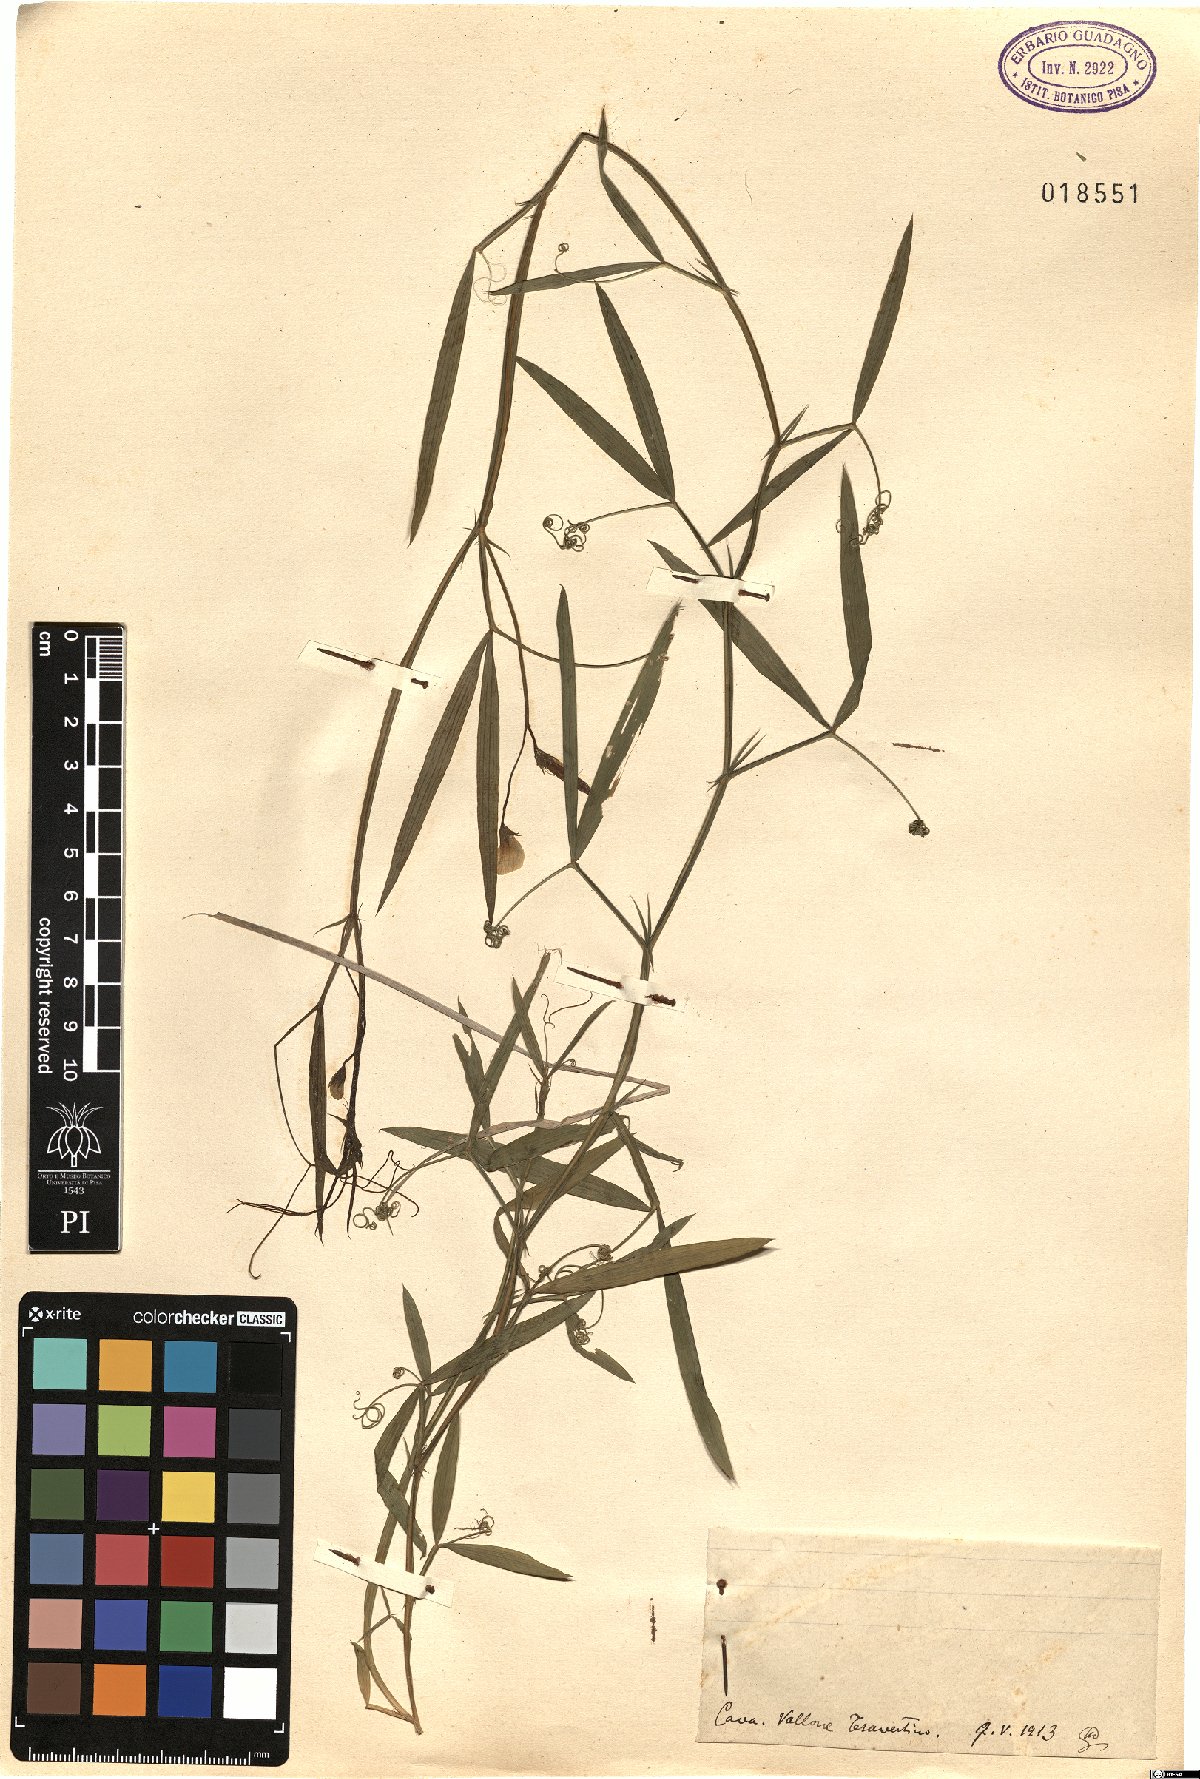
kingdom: Plantae
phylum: Tracheophyta
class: Magnoliopsida
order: Fabales
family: Fabaceae
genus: Lathyrus
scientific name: Lathyrus
